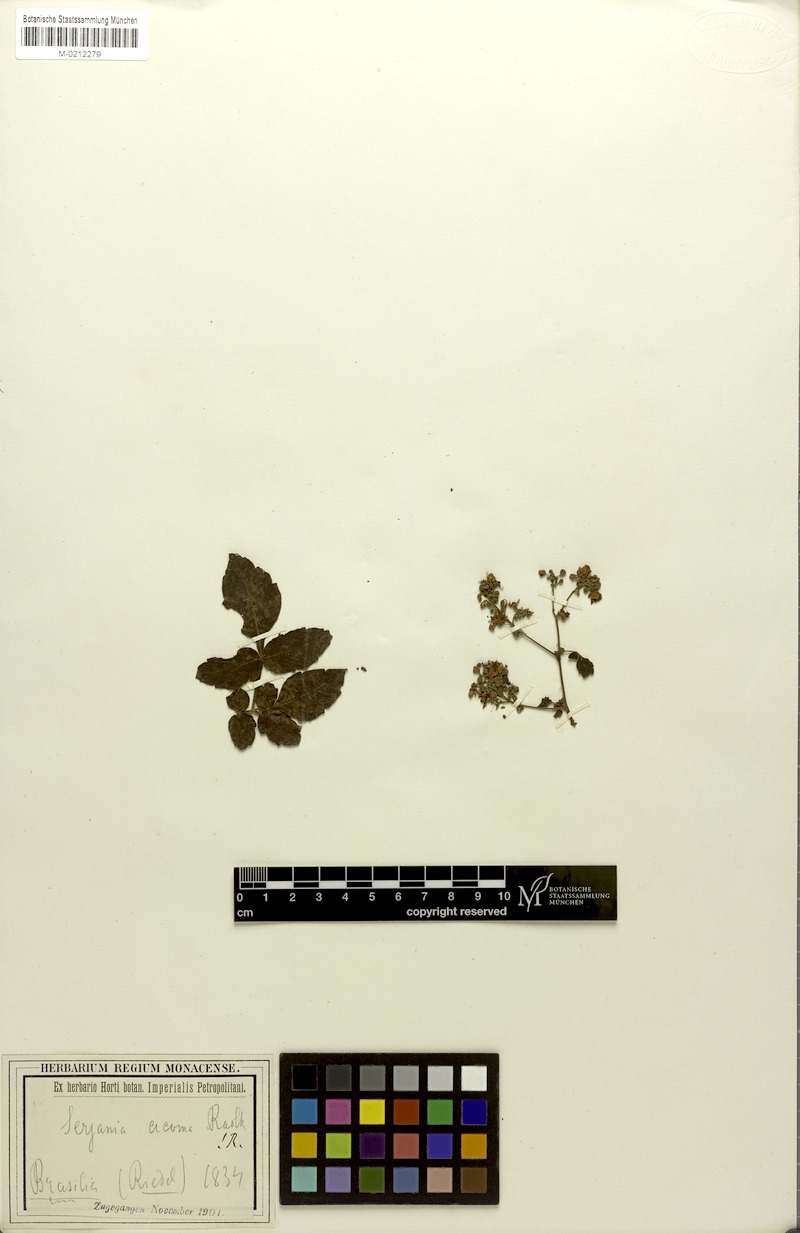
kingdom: Plantae
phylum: Tracheophyta
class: Magnoliopsida
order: Sapindales
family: Sapindaceae
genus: Serjania
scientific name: Serjania acoma
